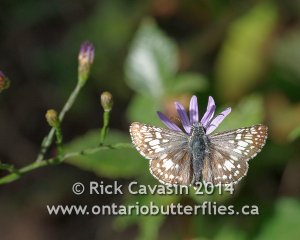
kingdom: Animalia
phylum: Arthropoda
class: Insecta
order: Lepidoptera
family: Hesperiidae
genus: Pyrgus
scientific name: Pyrgus communis
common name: Common Checkered-Skipper
